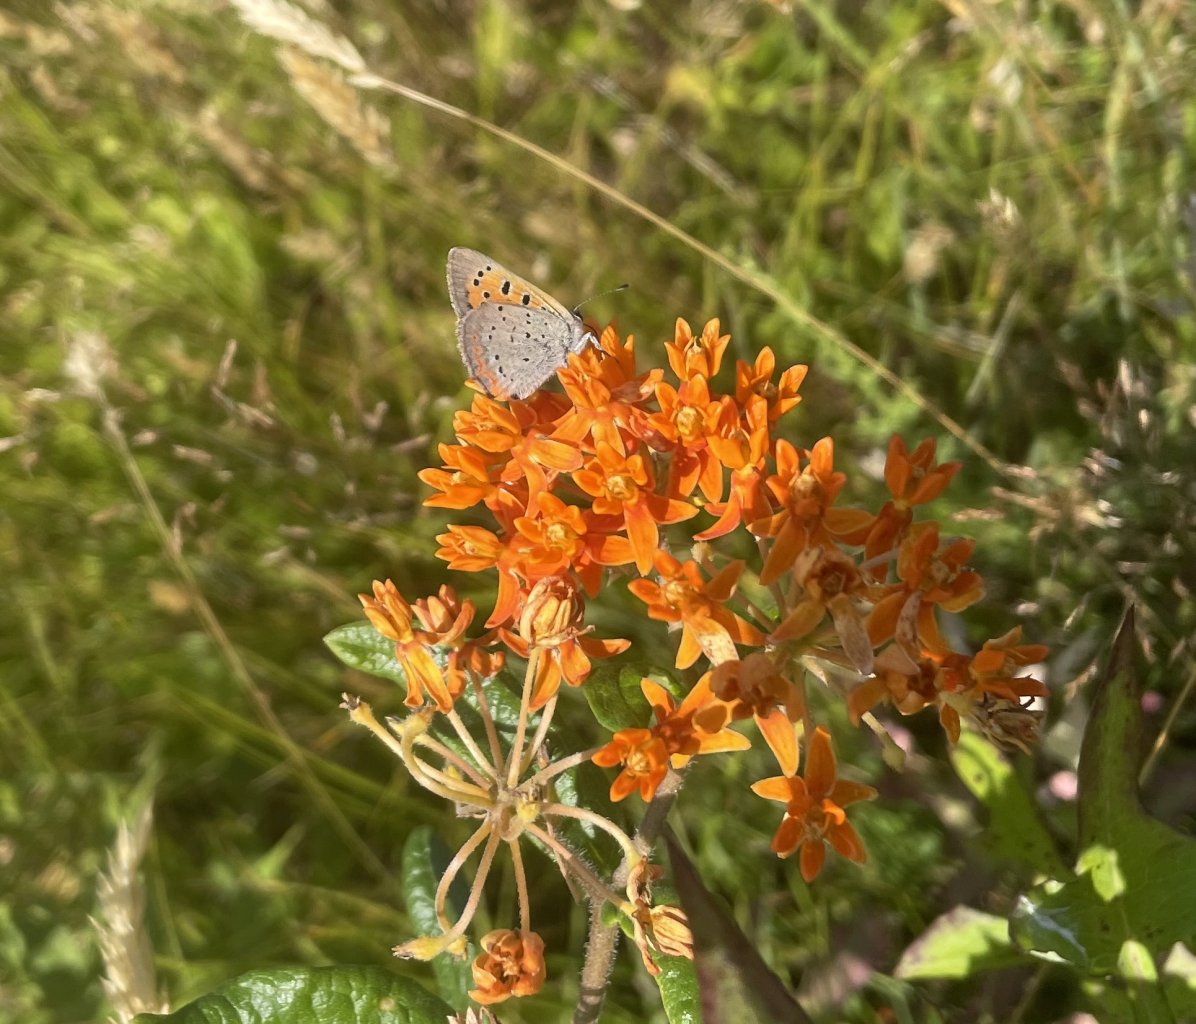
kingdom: Animalia
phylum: Arthropoda
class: Insecta
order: Lepidoptera
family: Lycaenidae
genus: Lycaena
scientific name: Lycaena phlaeas
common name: American Copper
